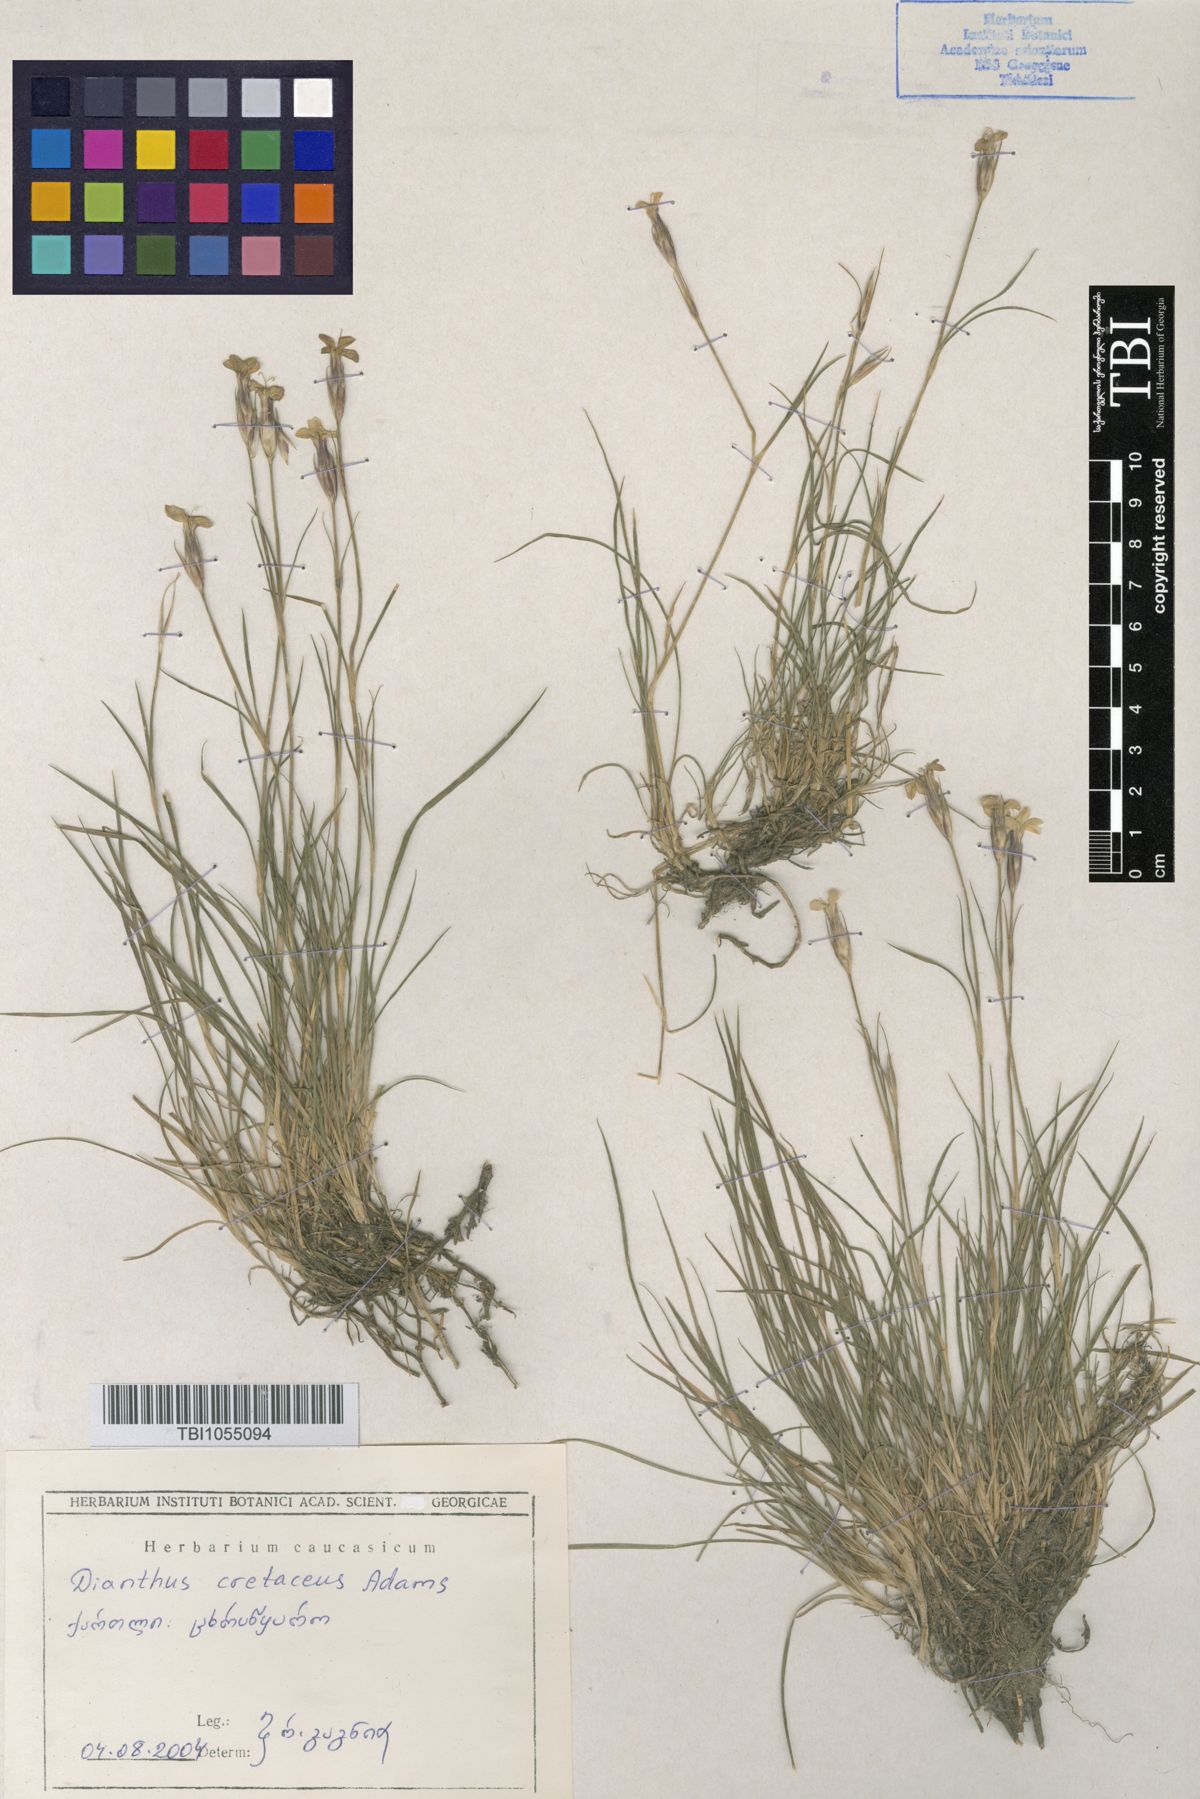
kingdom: Plantae
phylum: Tracheophyta
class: Magnoliopsida
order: Caryophyllales
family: Caryophyllaceae
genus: Dianthus
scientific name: Dianthus cretaceus
